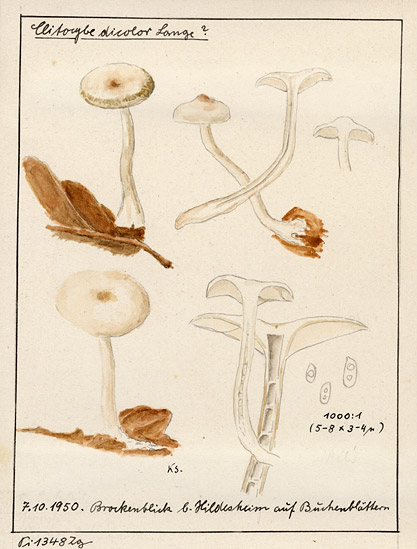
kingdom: Fungi
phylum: Basidiomycota
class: Agaricomycetes
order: Agaricales
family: Tricholomataceae
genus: Clitocybe
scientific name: Clitocybe metachroa
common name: Twotone funnel
